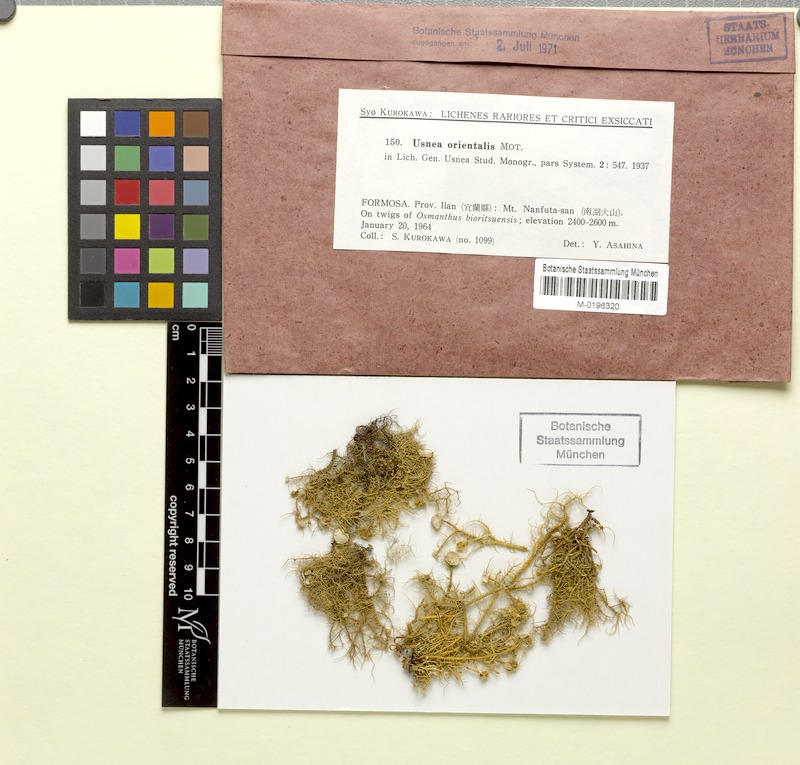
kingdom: Fungi
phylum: Ascomycota
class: Lecanoromycetes
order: Lecanorales
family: Parmeliaceae
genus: Usnea
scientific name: Usnea orientalis
